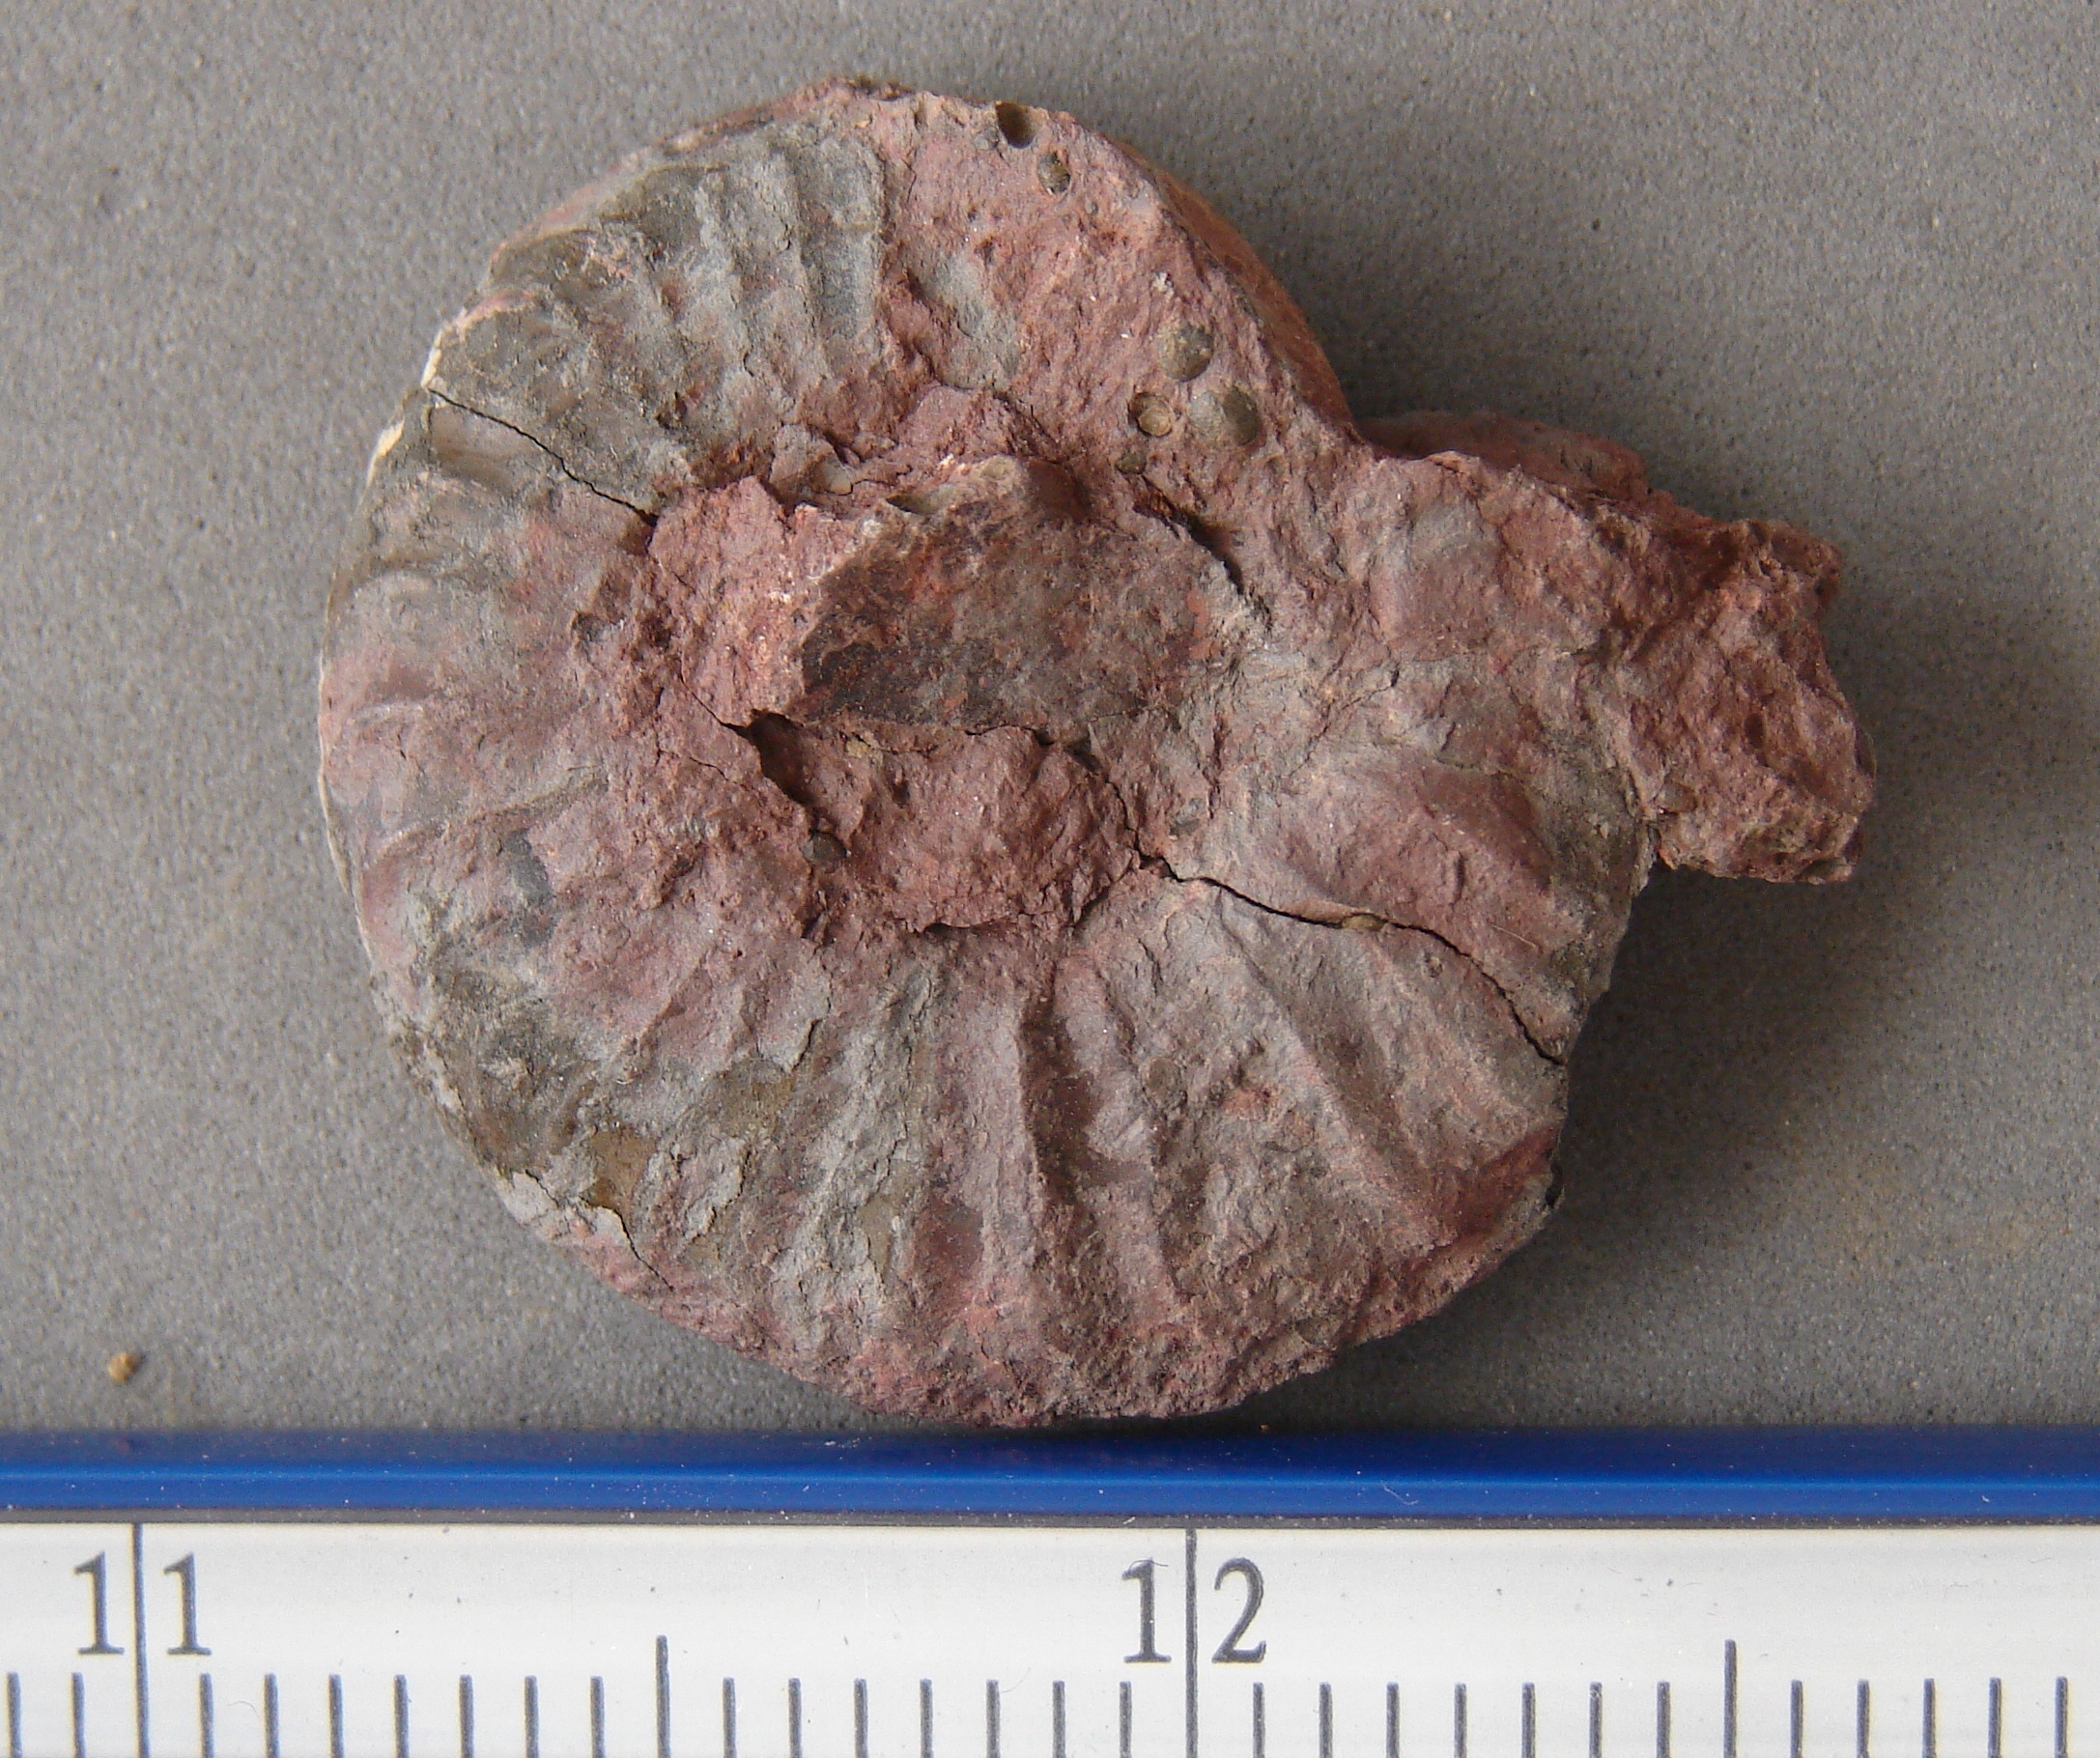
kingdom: Animalia
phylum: Mollusca
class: Cephalopoda
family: Hildoceratidae
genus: Dumortieria
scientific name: Dumortieria
